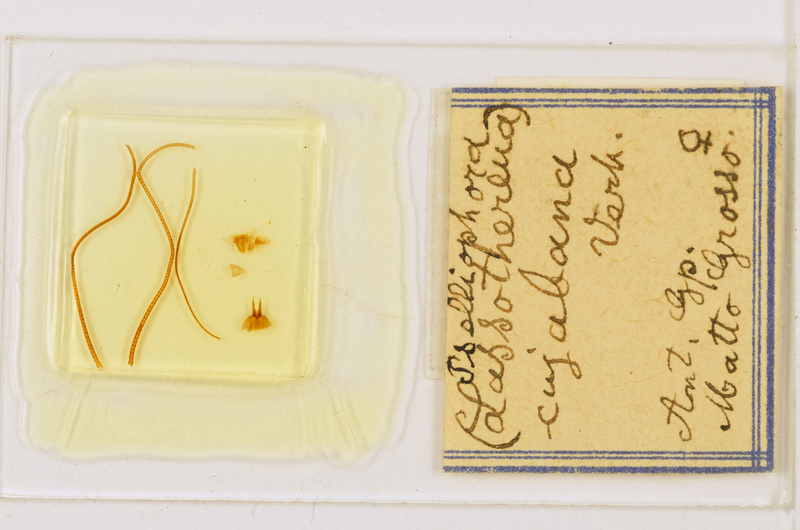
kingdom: Animalia
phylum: Arthropoda
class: Chilopoda
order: Scutigeromorpha
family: Pselliodidae
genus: Sphendononema
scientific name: Sphendononema guildingii
